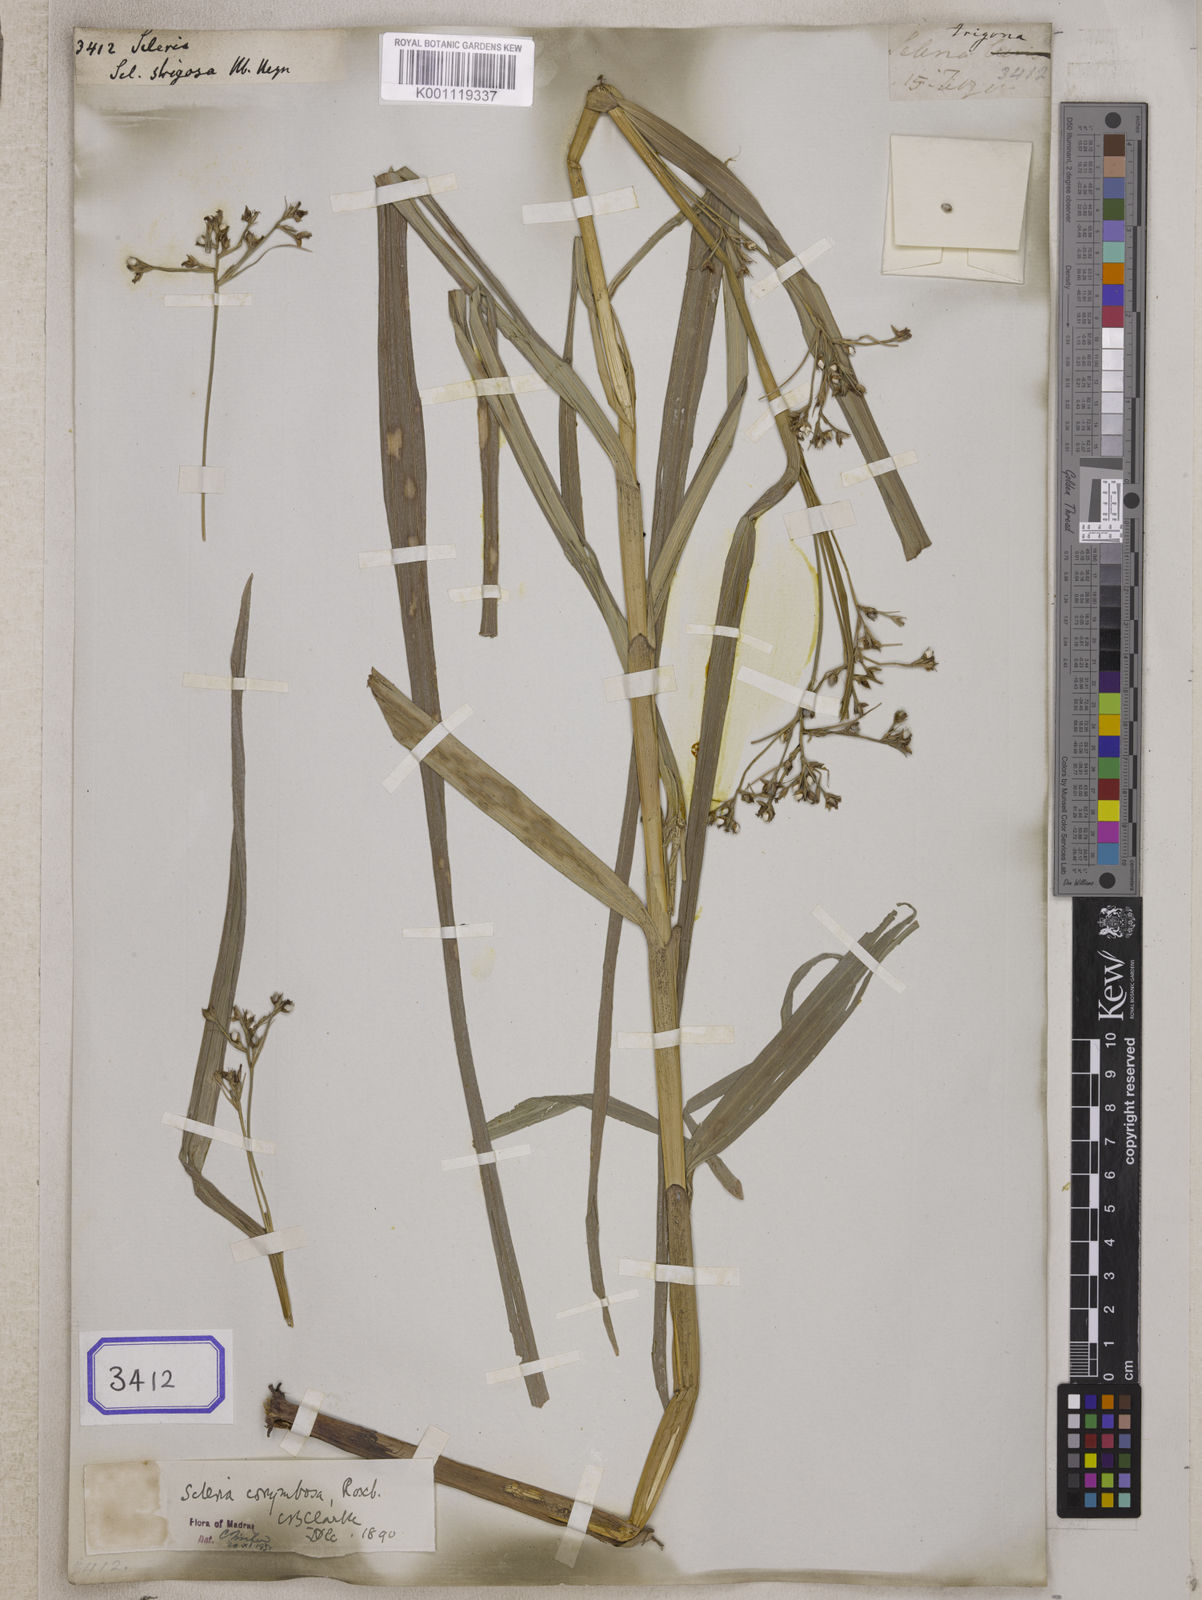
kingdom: Plantae
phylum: Tracheophyta
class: Liliopsida
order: Poales
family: Cyperaceae
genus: Scleria
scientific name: Scleria
